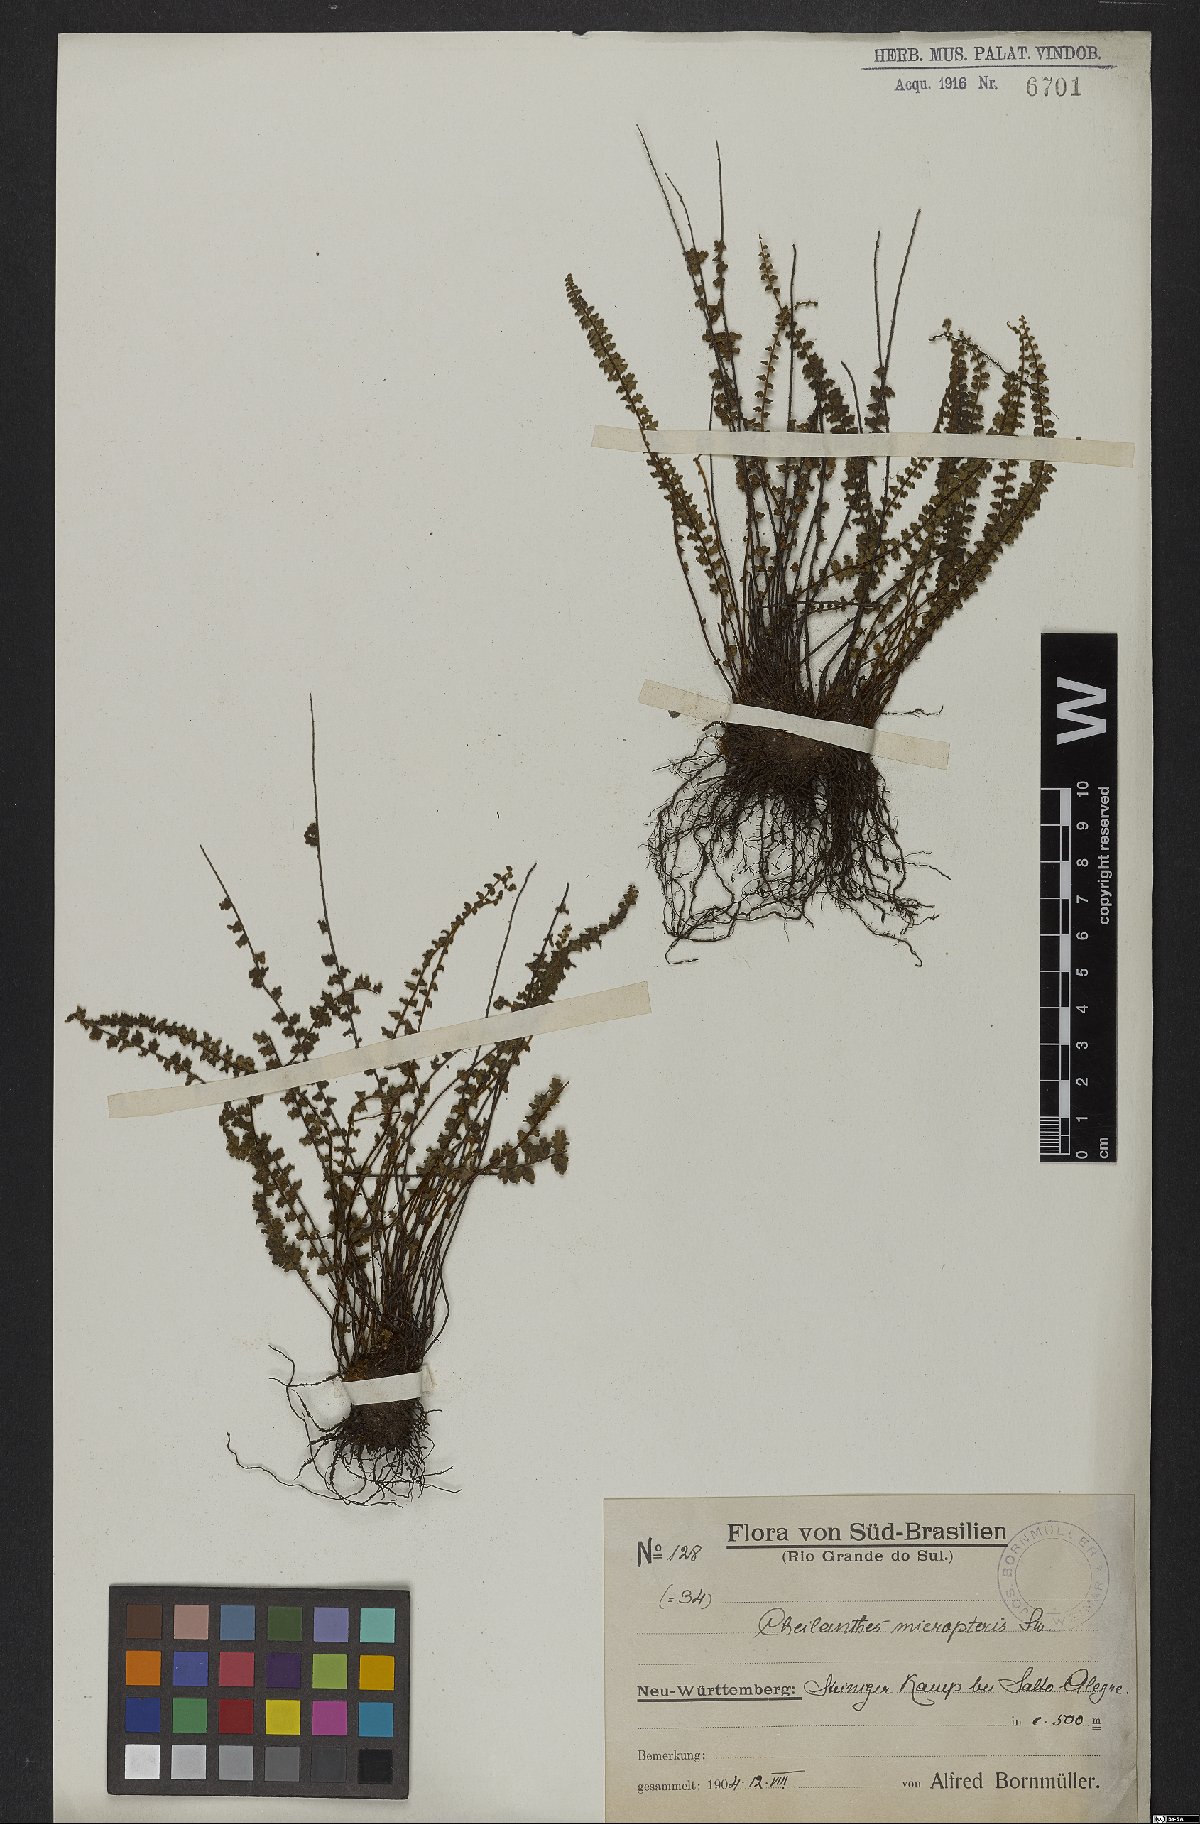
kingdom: Plantae
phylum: Tracheophyta
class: Polypodiopsida
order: Polypodiales
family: Pteridaceae
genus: Cheilanthes
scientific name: Cheilanthes micropteris
